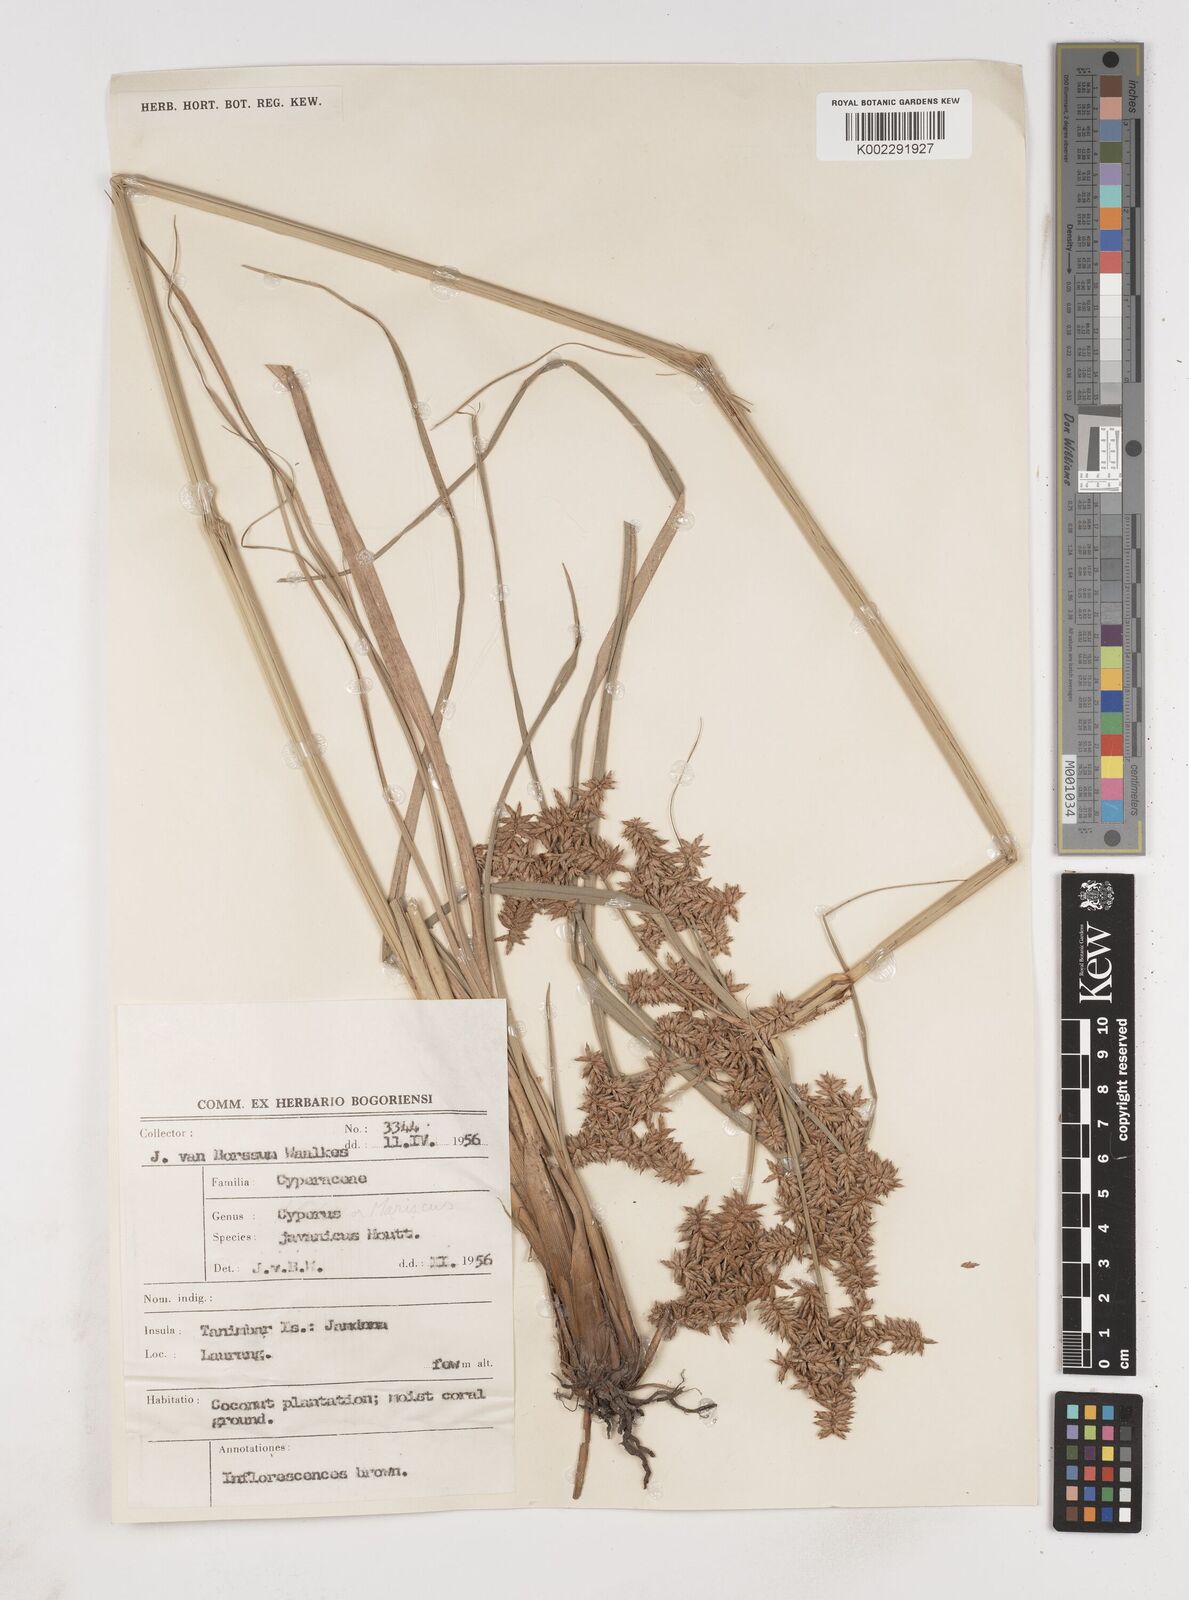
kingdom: Plantae
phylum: Tracheophyta
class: Liliopsida
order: Poales
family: Cyperaceae
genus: Cyperus
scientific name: Cyperus javanicus
